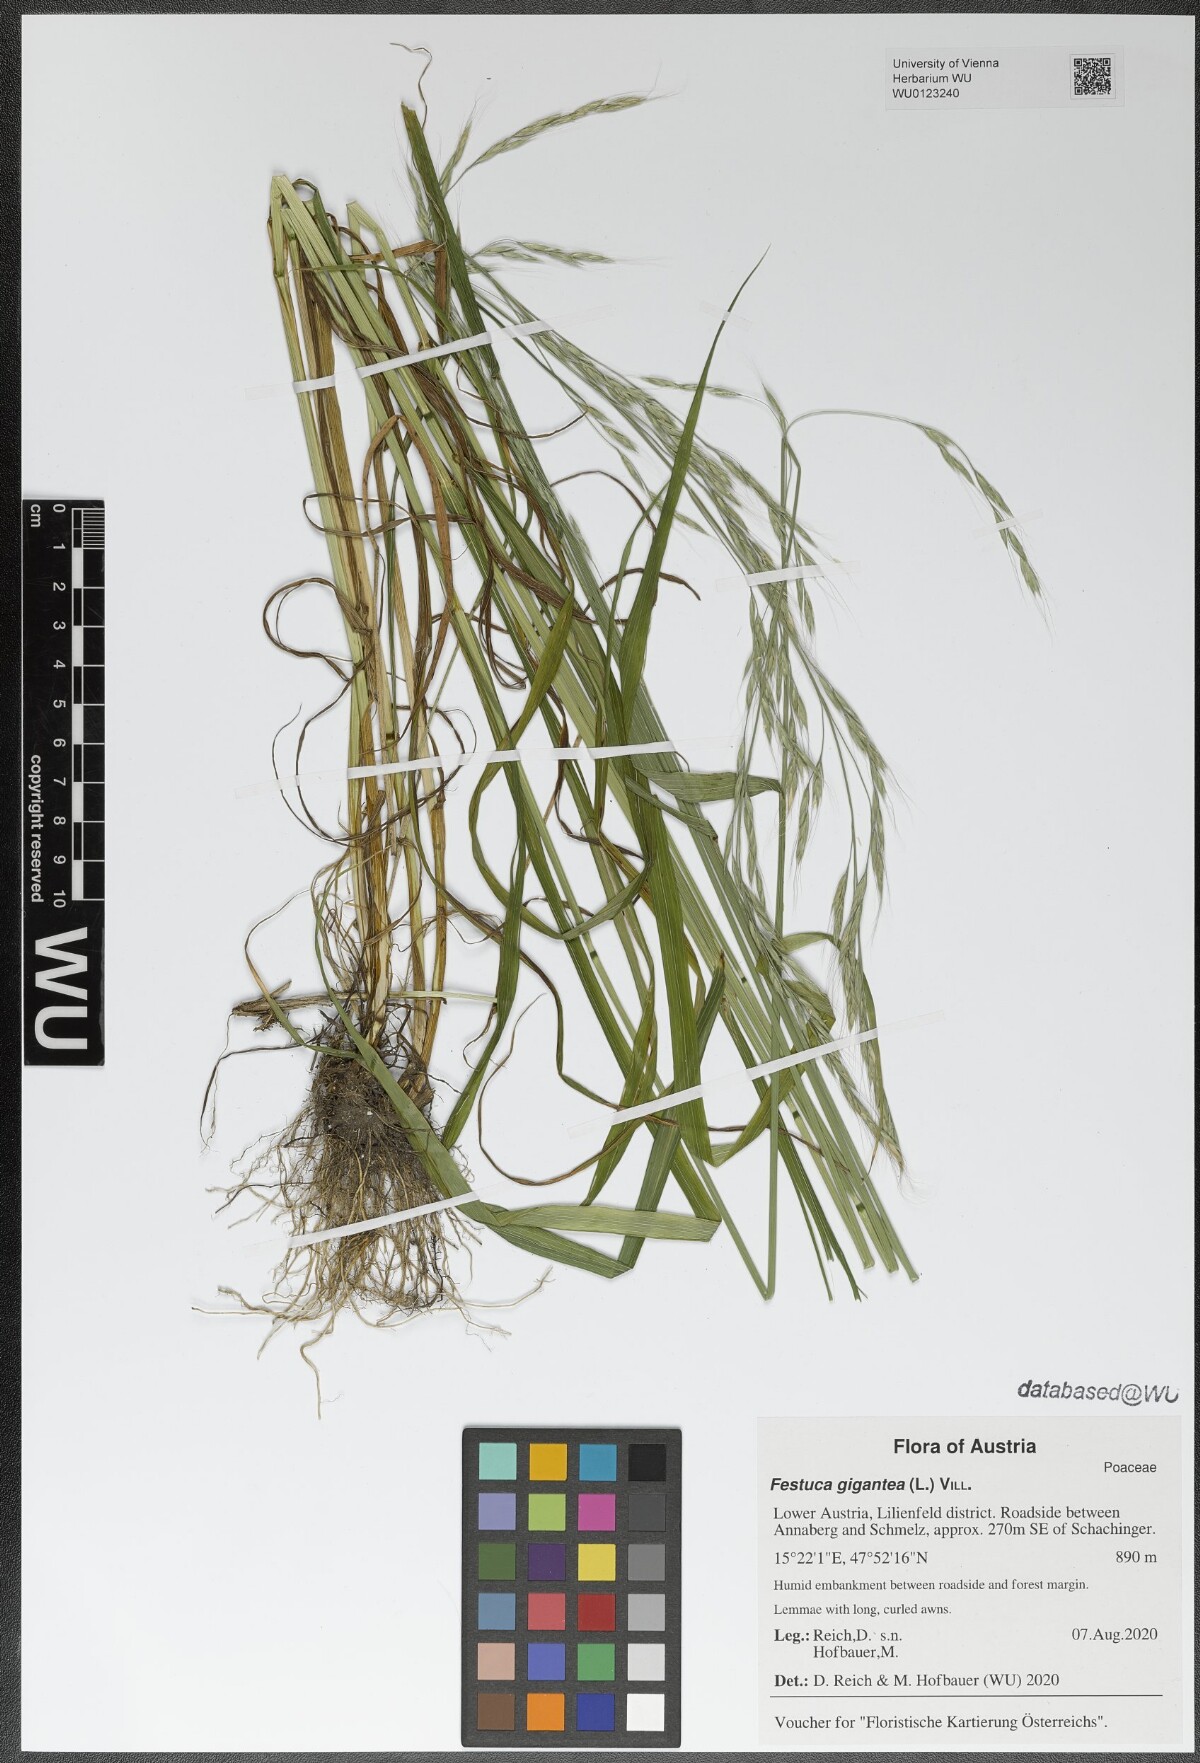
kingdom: Plantae
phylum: Tracheophyta
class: Liliopsida
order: Poales
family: Poaceae
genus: Lolium
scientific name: Lolium giganteum
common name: Giant fescue
